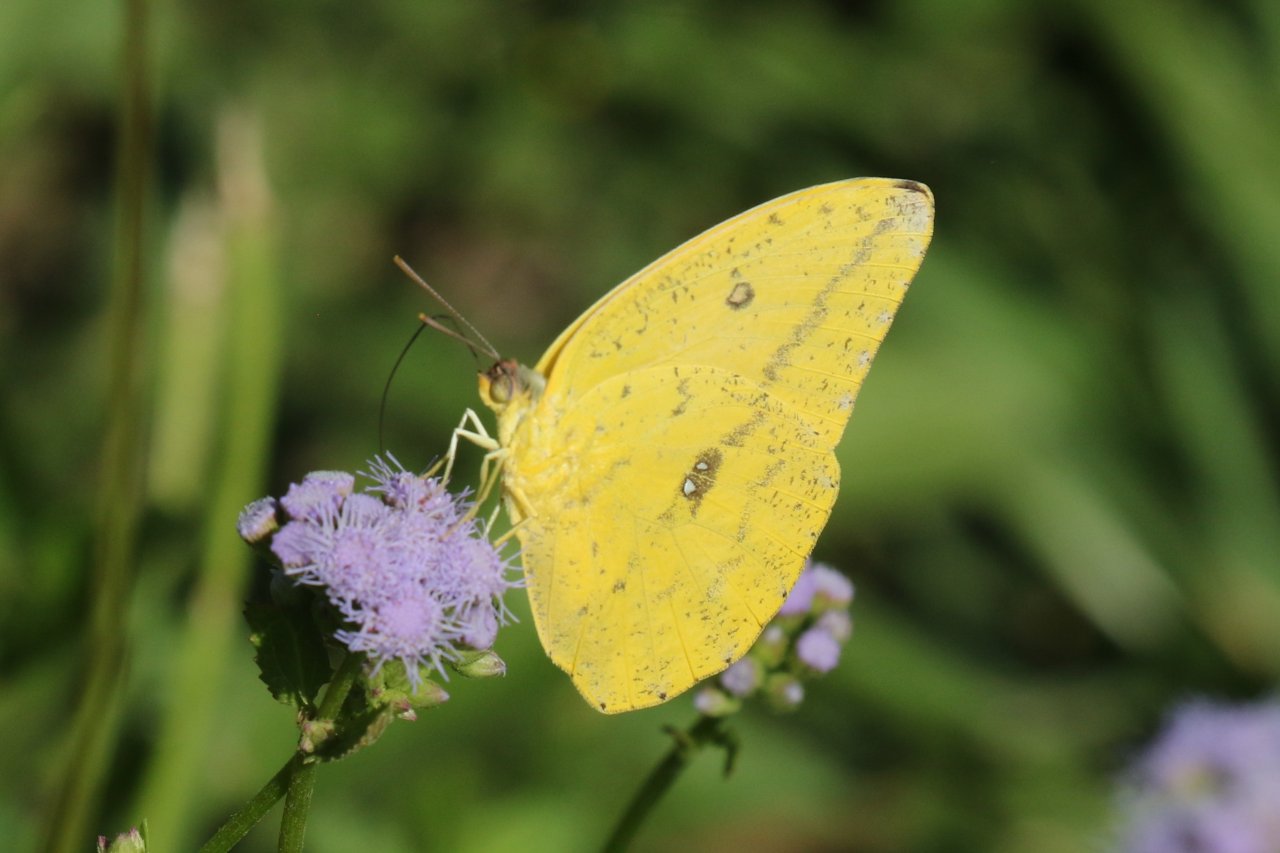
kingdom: Animalia
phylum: Arthropoda
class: Insecta
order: Lepidoptera
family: Pieridae
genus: Phoebis
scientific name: Phoebis agarithe
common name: Large Orange Sulphur
